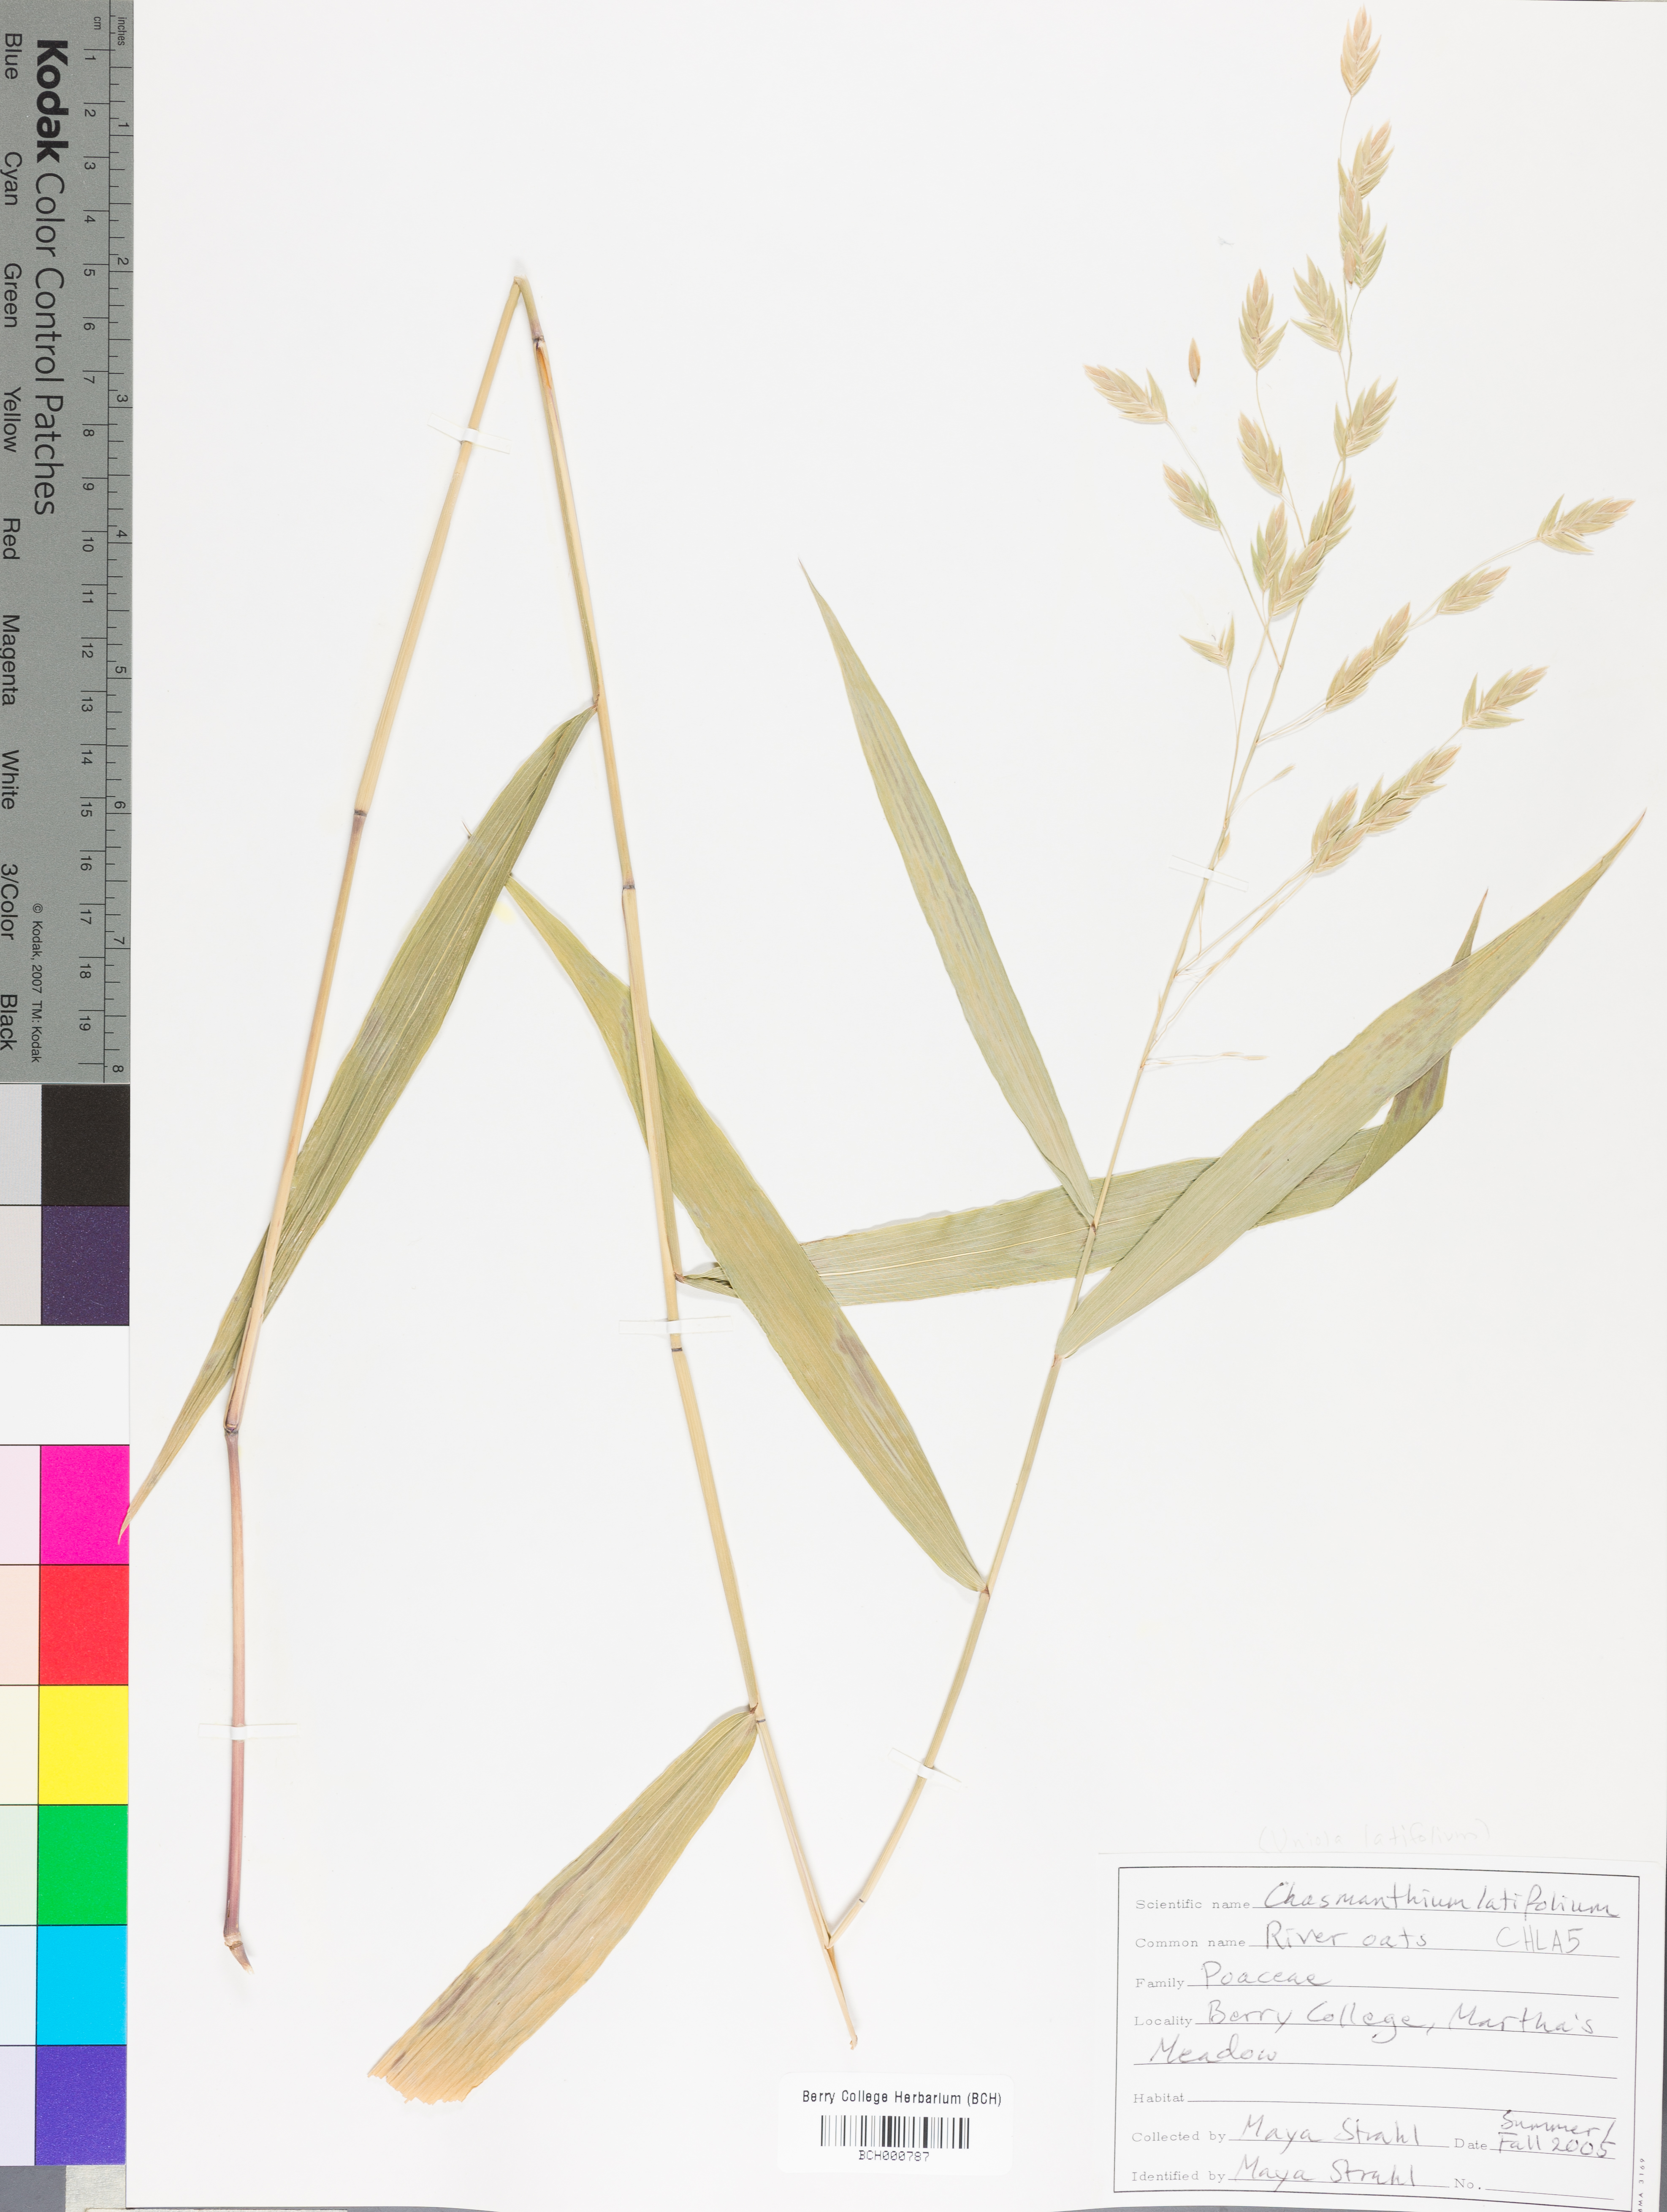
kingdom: Plantae
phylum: Tracheophyta
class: Liliopsida
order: Poales
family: Poaceae
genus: Chasmanthium
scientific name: Chasmanthium latifolium
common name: Broad-leaved chasmanthium
